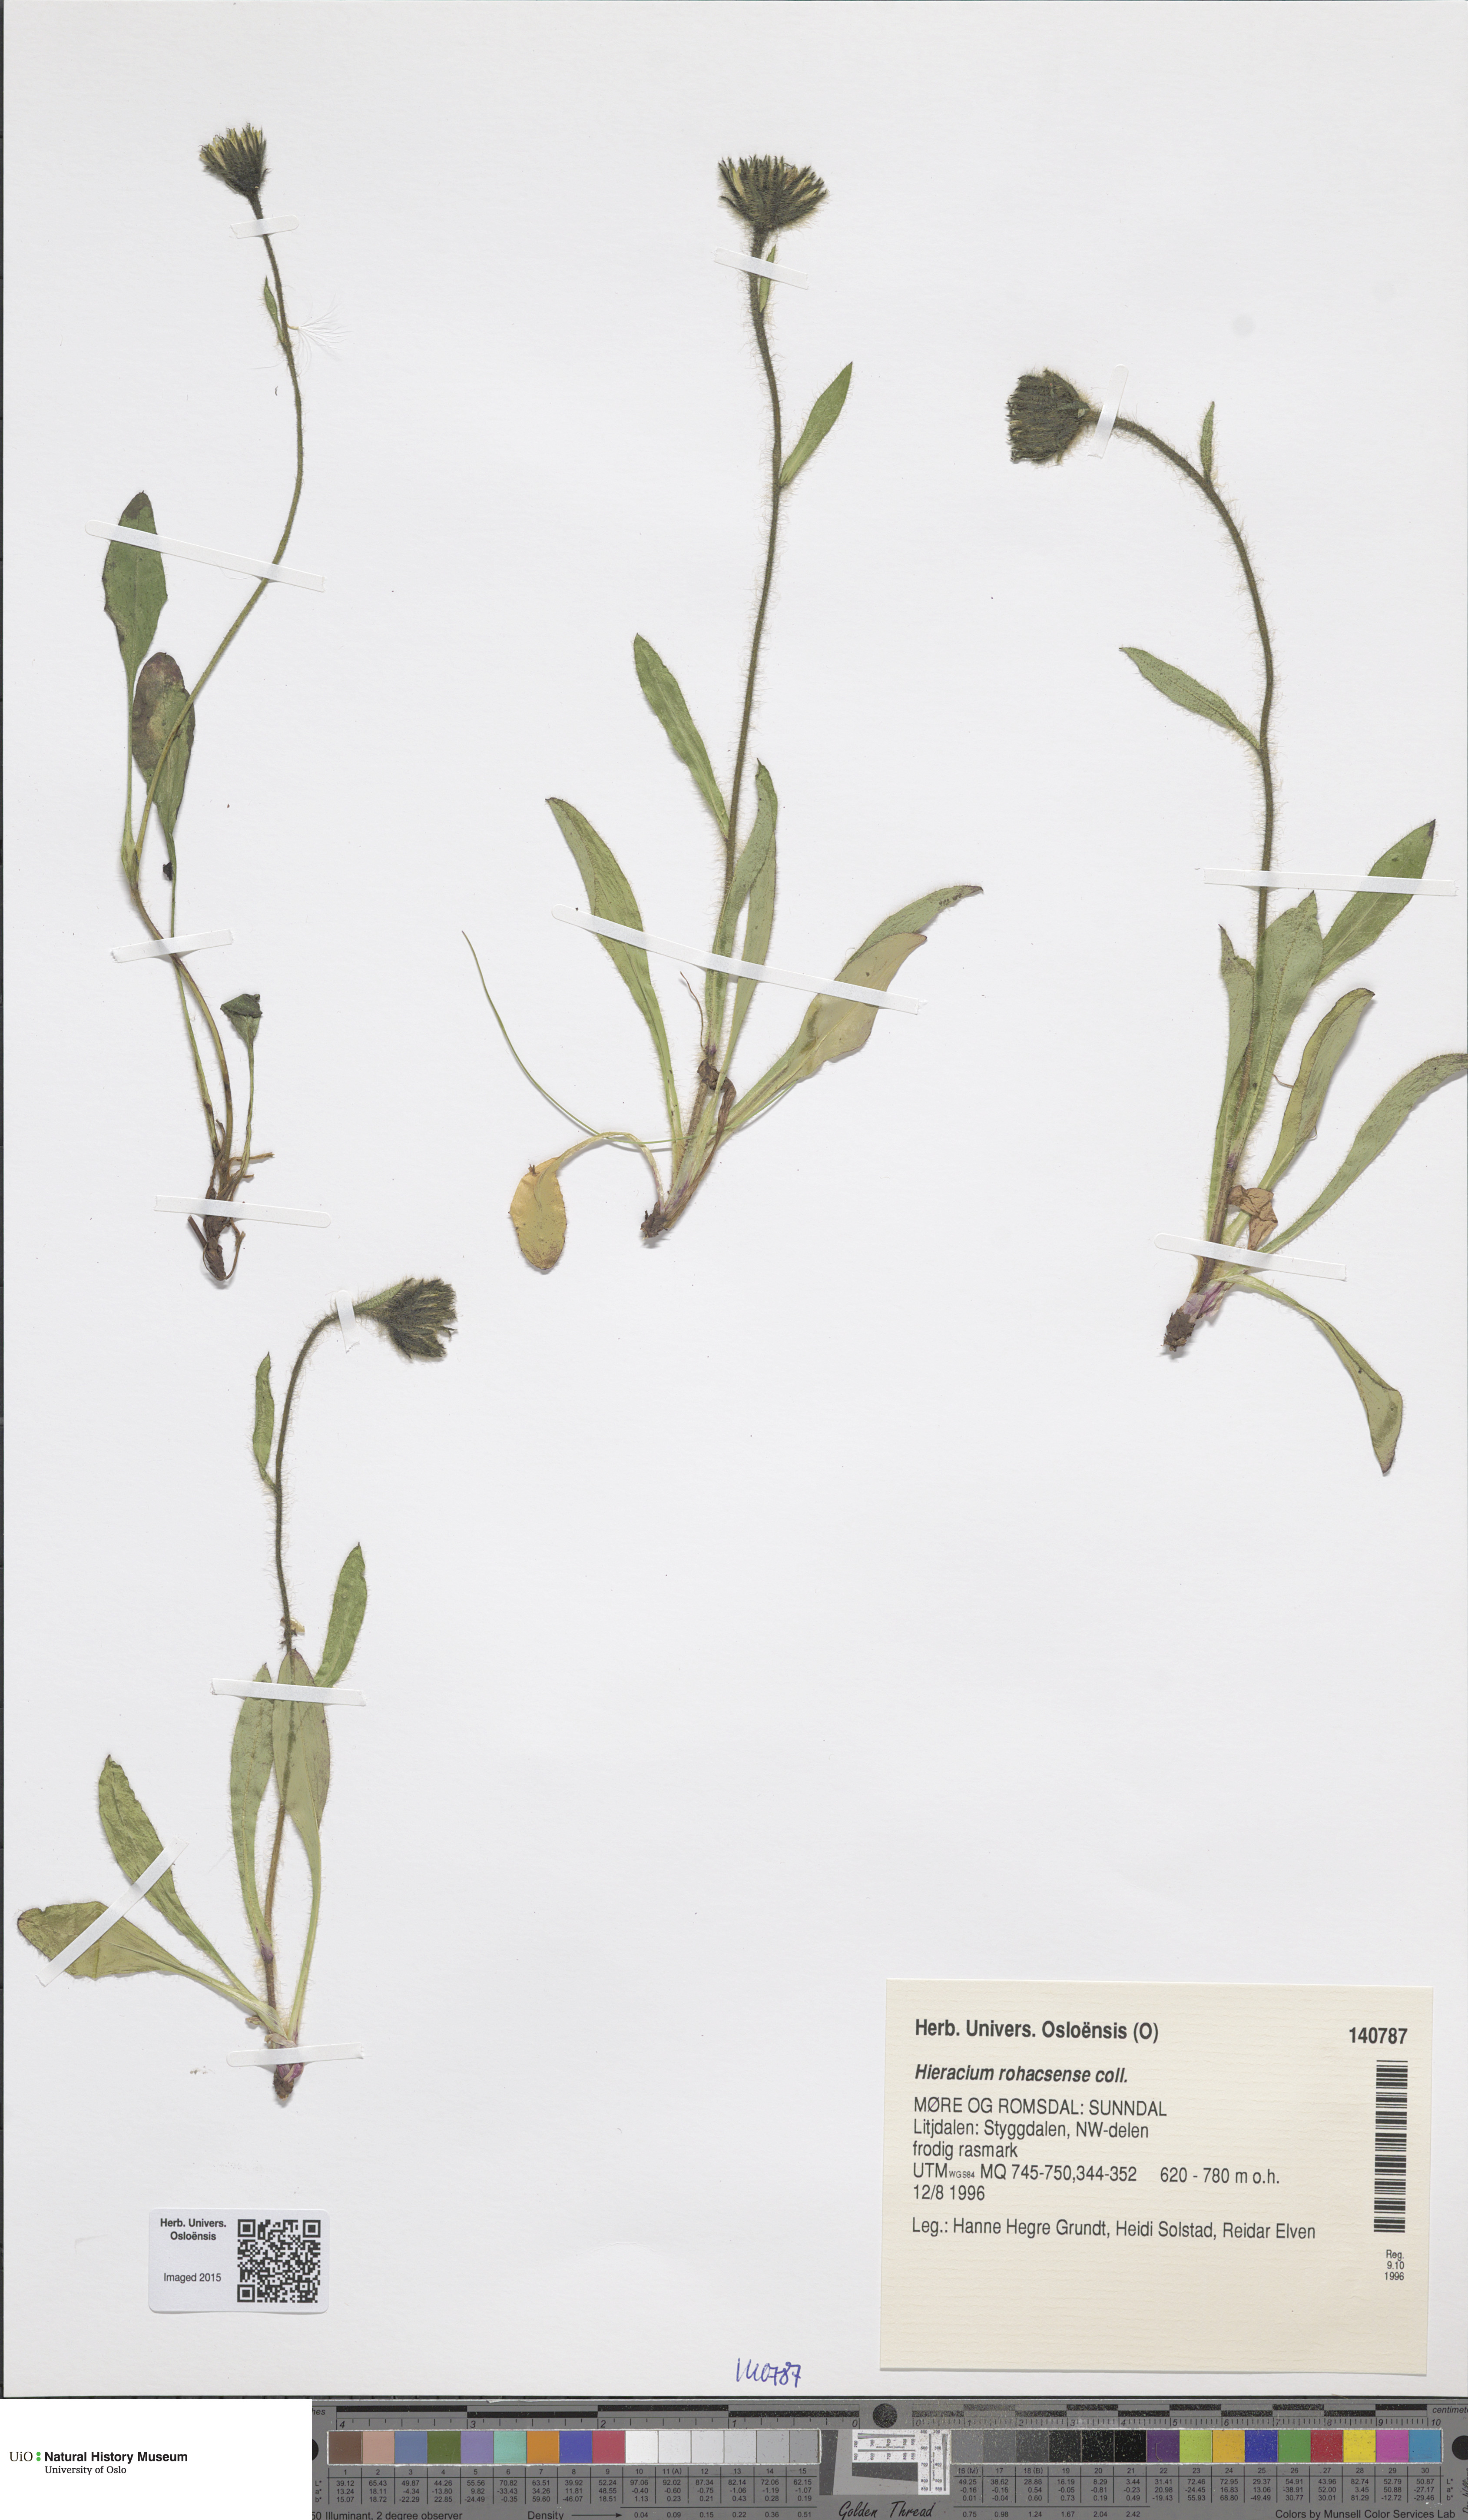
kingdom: Plantae
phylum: Tracheophyta
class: Magnoliopsida
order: Asterales
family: Asteraceae
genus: Hieracium
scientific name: Hieracium rohacsense
